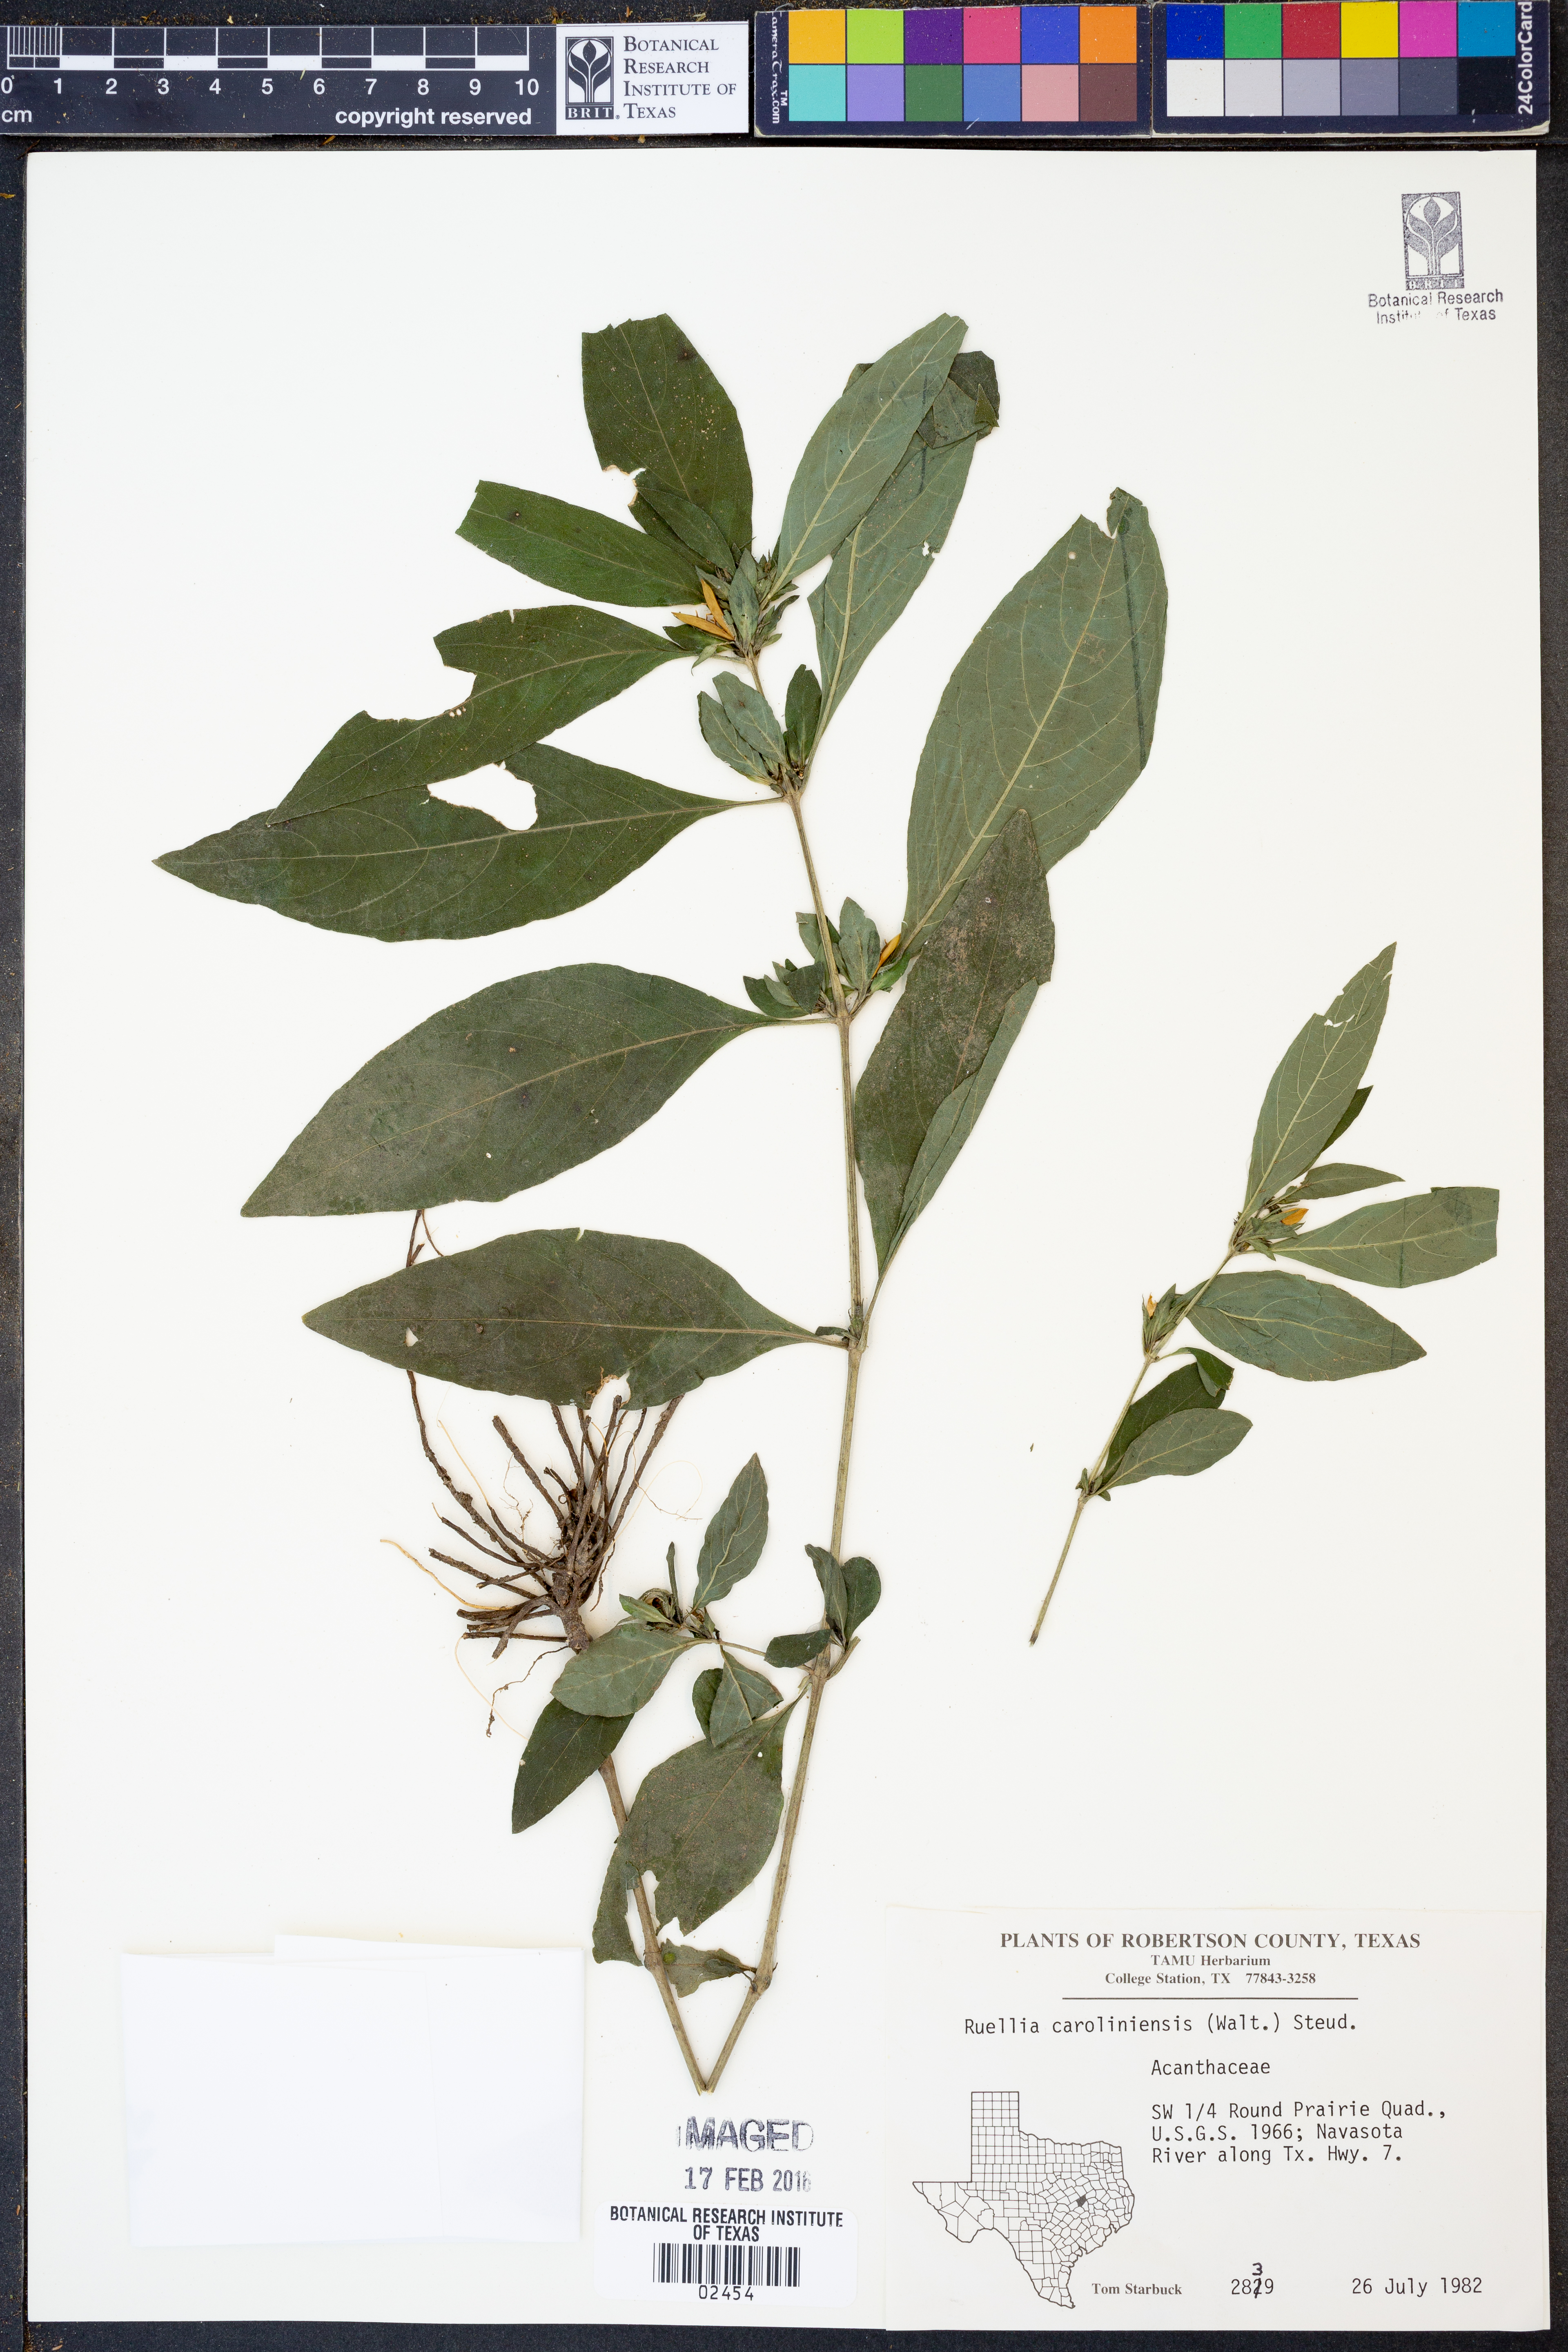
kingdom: Plantae
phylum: Tracheophyta
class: Magnoliopsida
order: Lamiales
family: Acanthaceae
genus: Ruellia
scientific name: Ruellia caroliniensis
